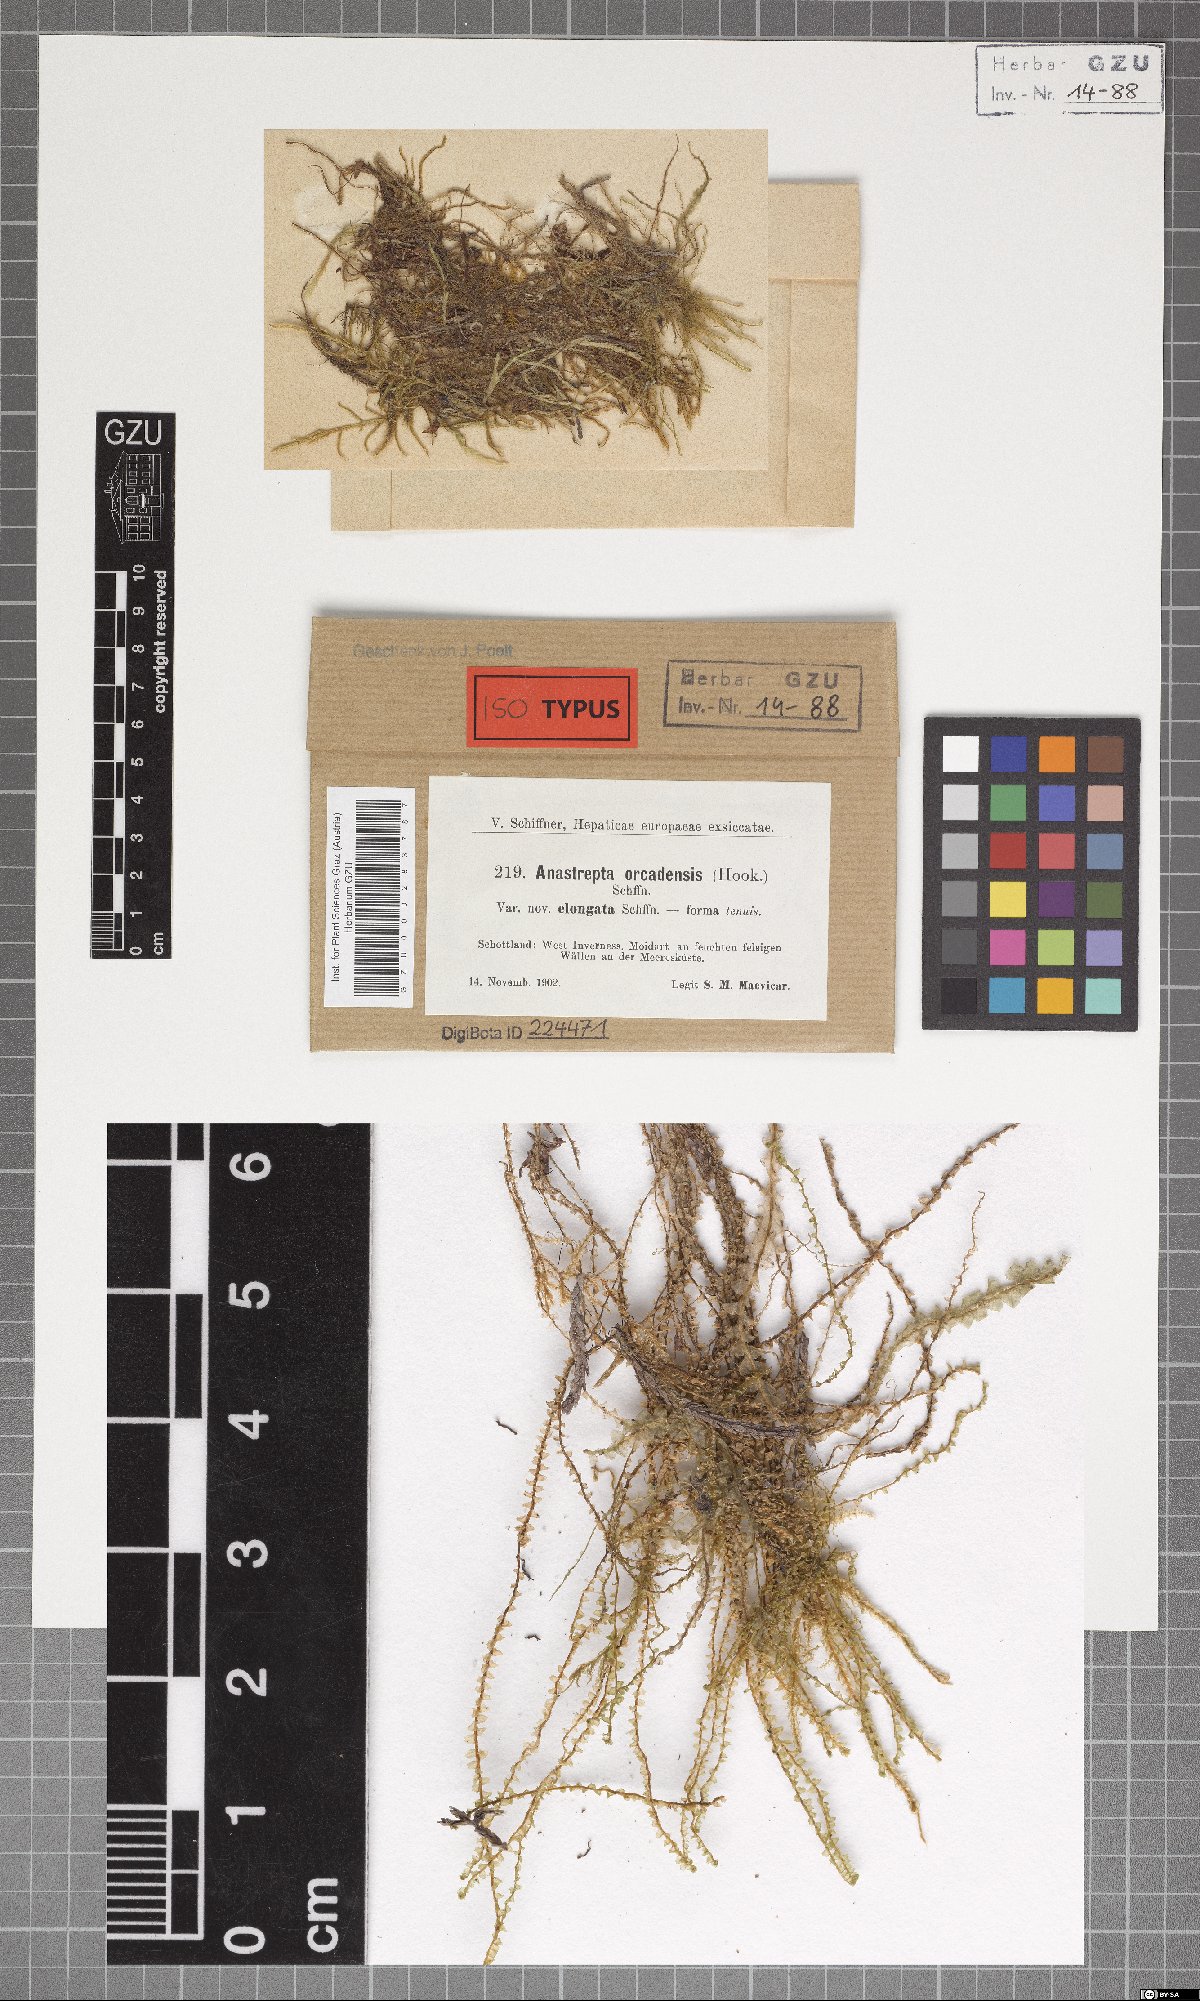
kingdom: Plantae
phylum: Marchantiophyta
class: Jungermanniopsida
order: Jungermanniales
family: Anastrophyllaceae
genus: Anastrepta
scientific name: Anastrepta orcadensis
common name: Orkney notchwort
